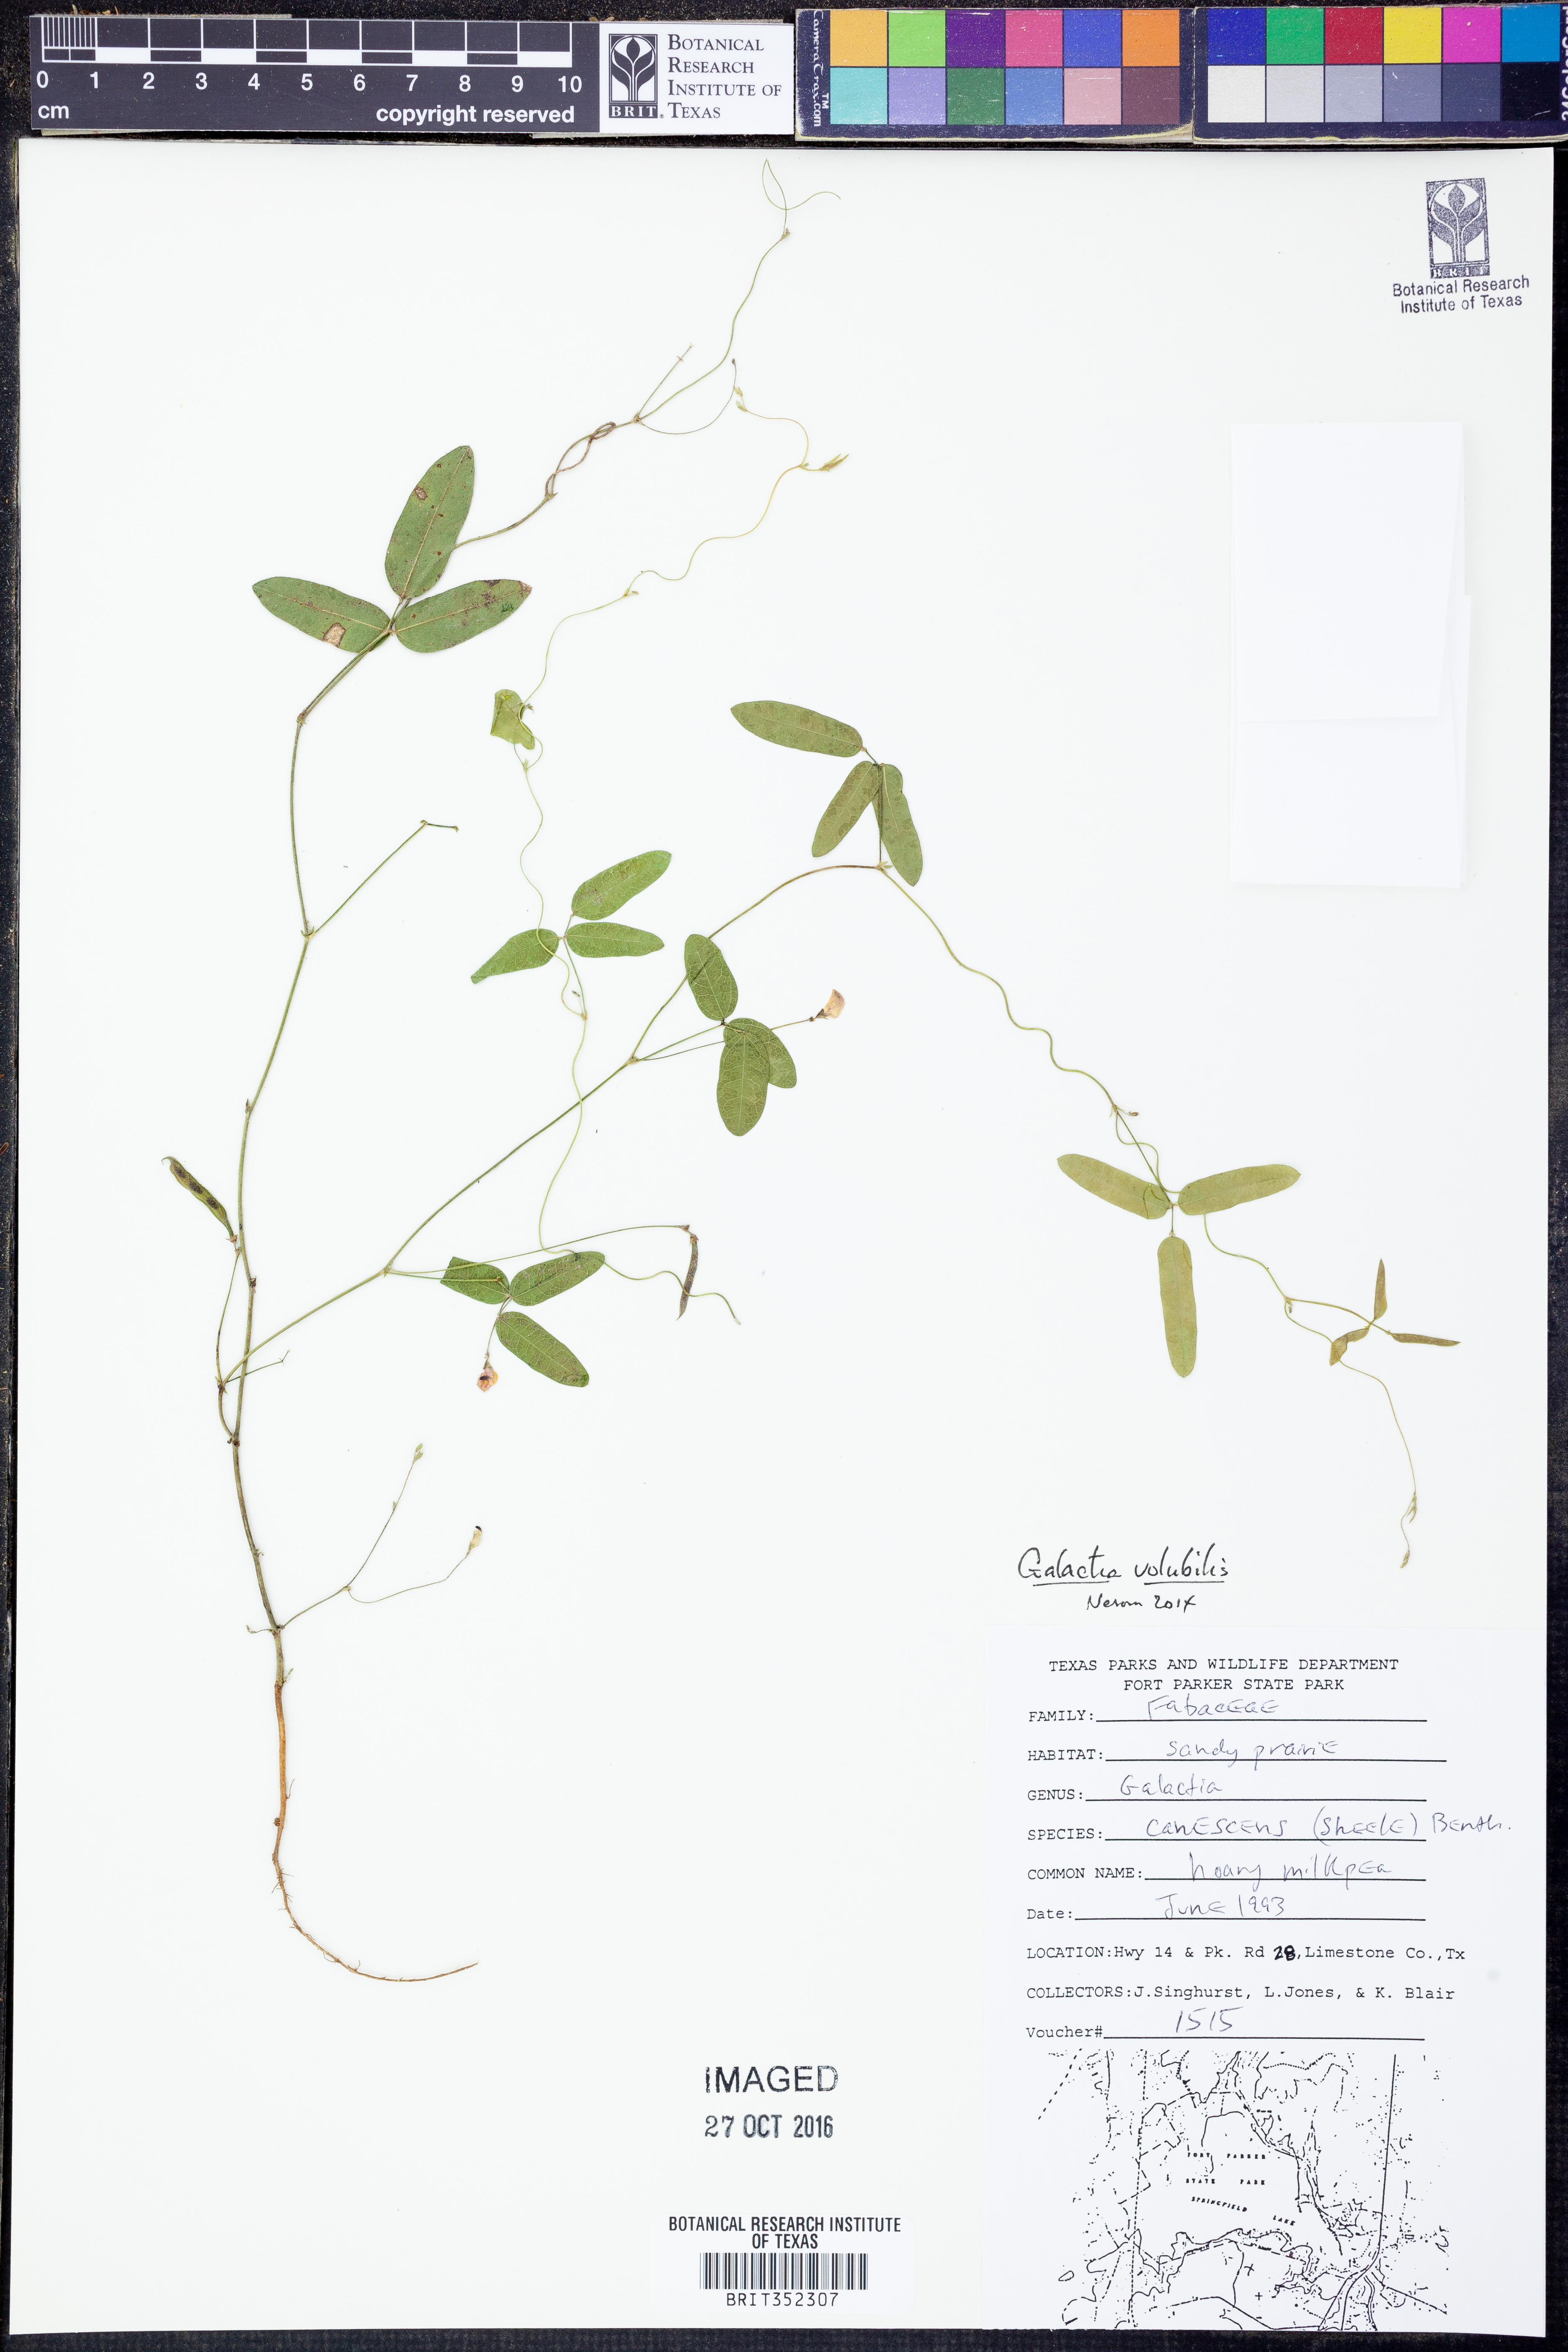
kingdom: Plantae
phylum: Tracheophyta
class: Magnoliopsida
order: Fabales
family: Fabaceae
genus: Galactia
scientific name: Galactia volubilis
